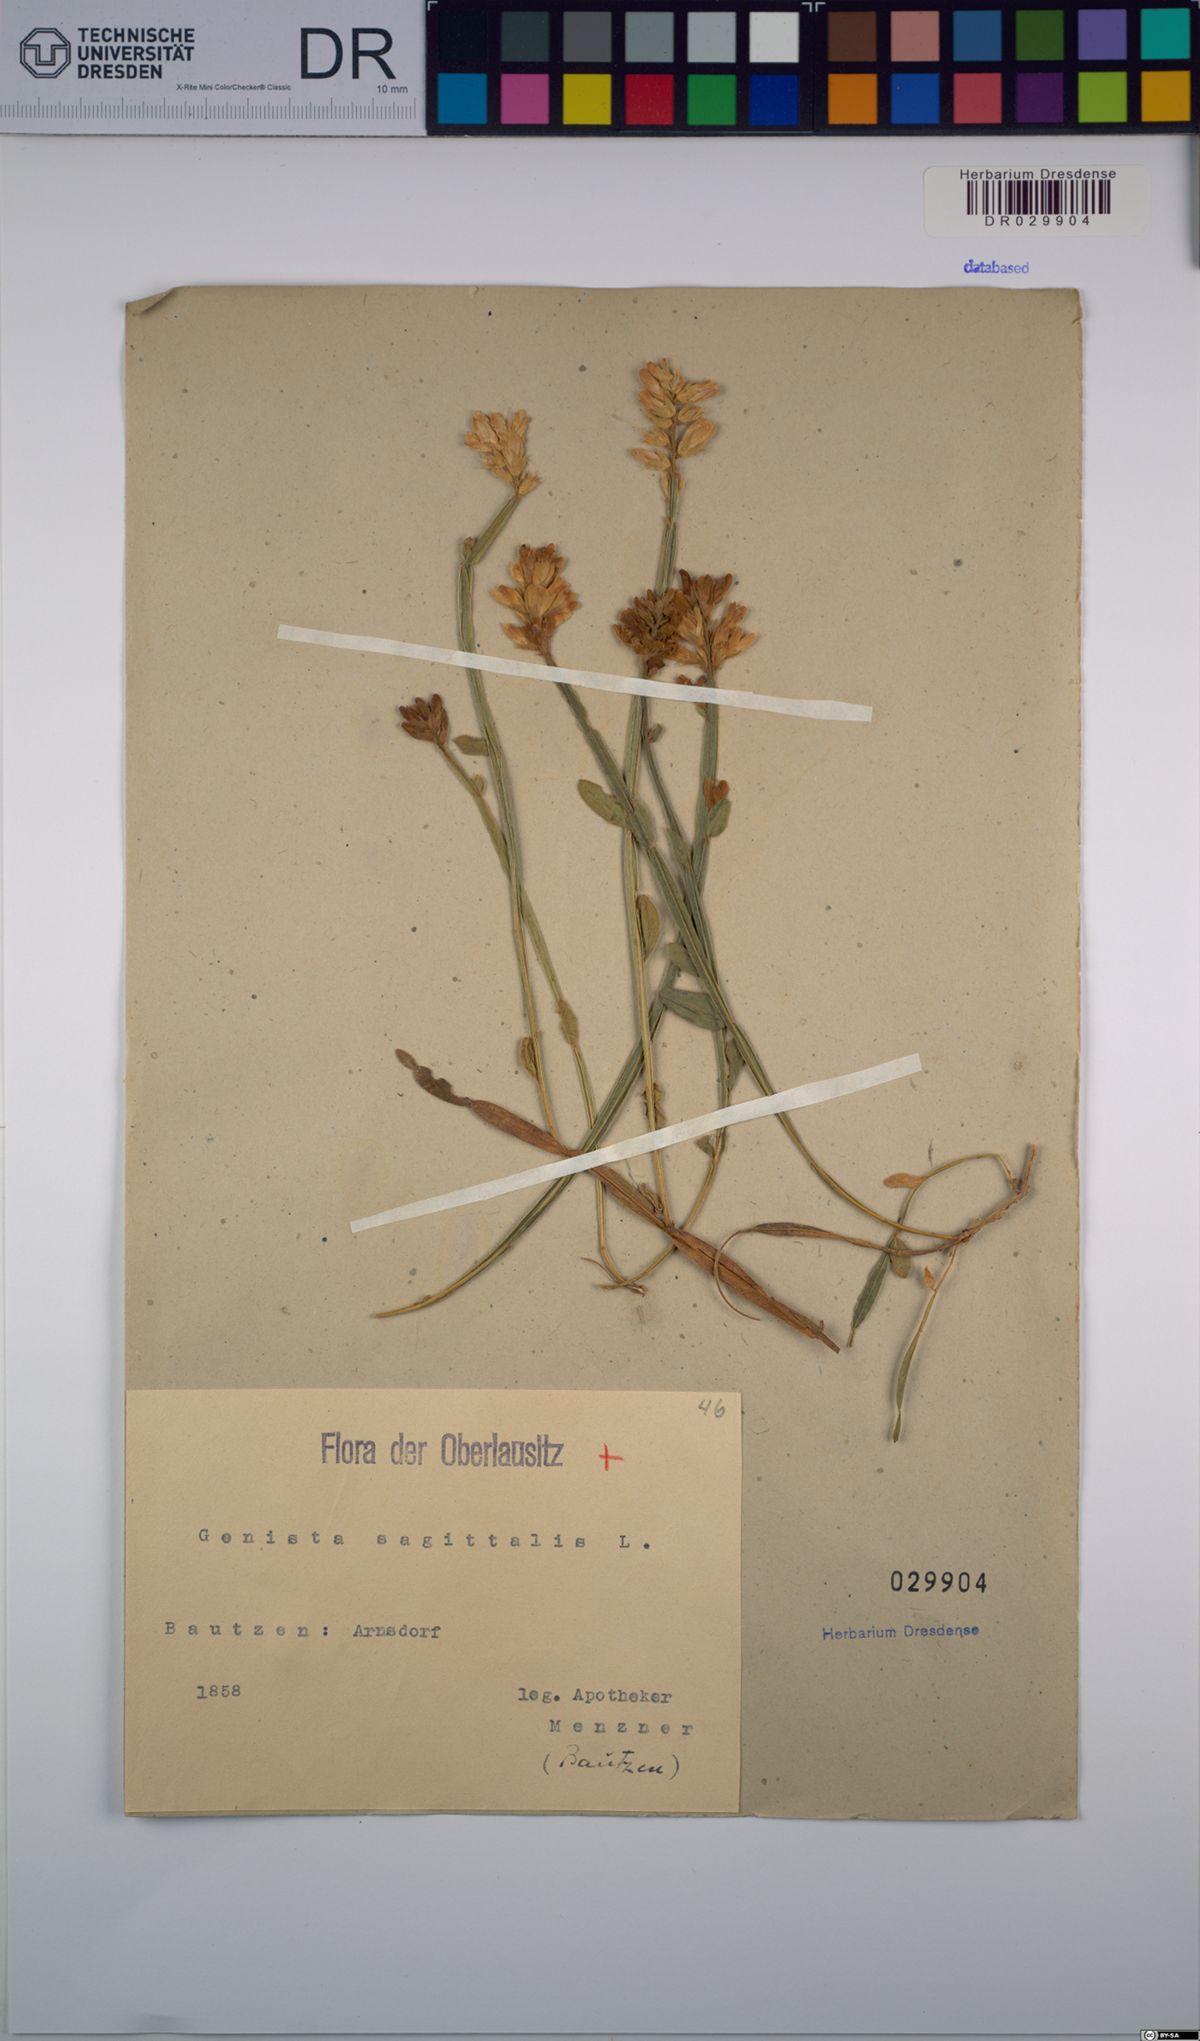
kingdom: Plantae
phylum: Tracheophyta
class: Magnoliopsida
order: Fabales
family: Fabaceae
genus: Genista
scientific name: Genista sagittalis
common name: Winged greenweed
